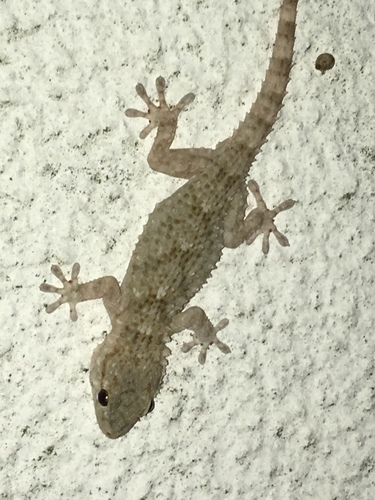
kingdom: Animalia
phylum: Chordata
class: Squamata
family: Phyllodactylidae
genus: Tarentola
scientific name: Tarentola mauritanica
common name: Moorish gecko
